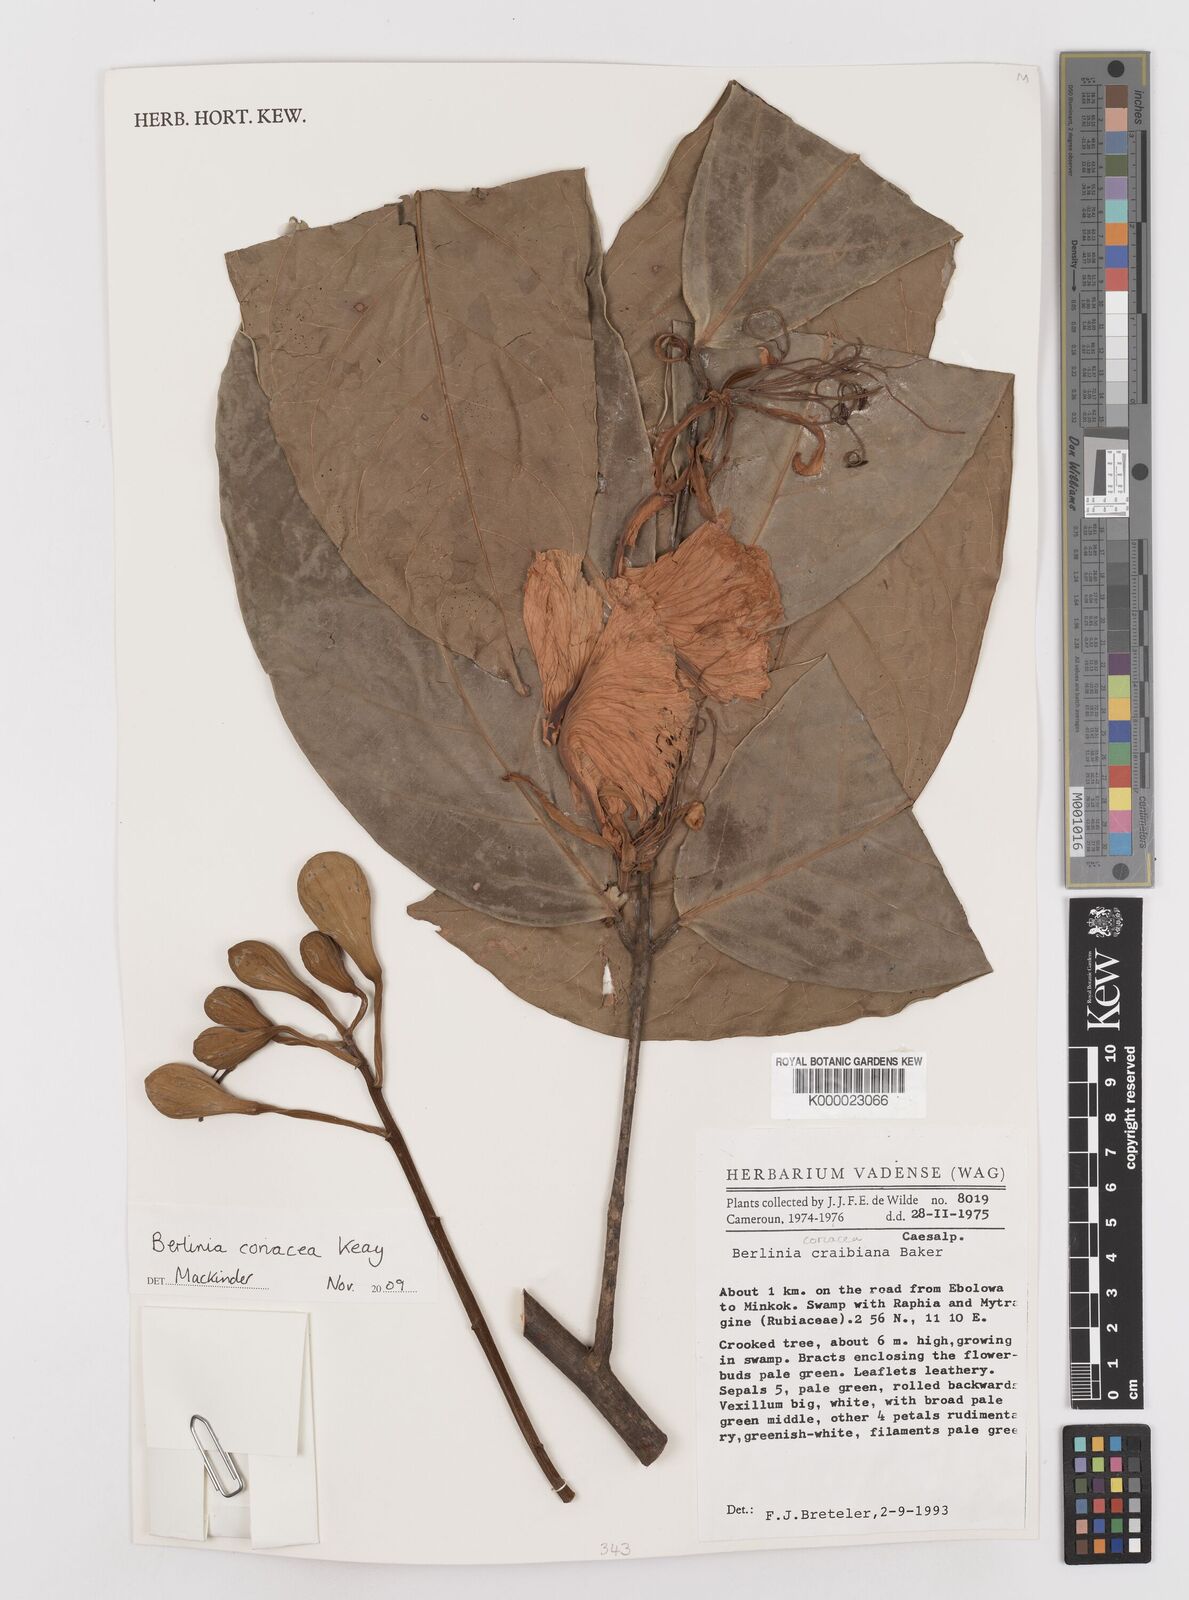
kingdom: Plantae
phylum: Tracheophyta
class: Magnoliopsida
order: Fabales
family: Fabaceae
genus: Berlinia
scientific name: Berlinia
